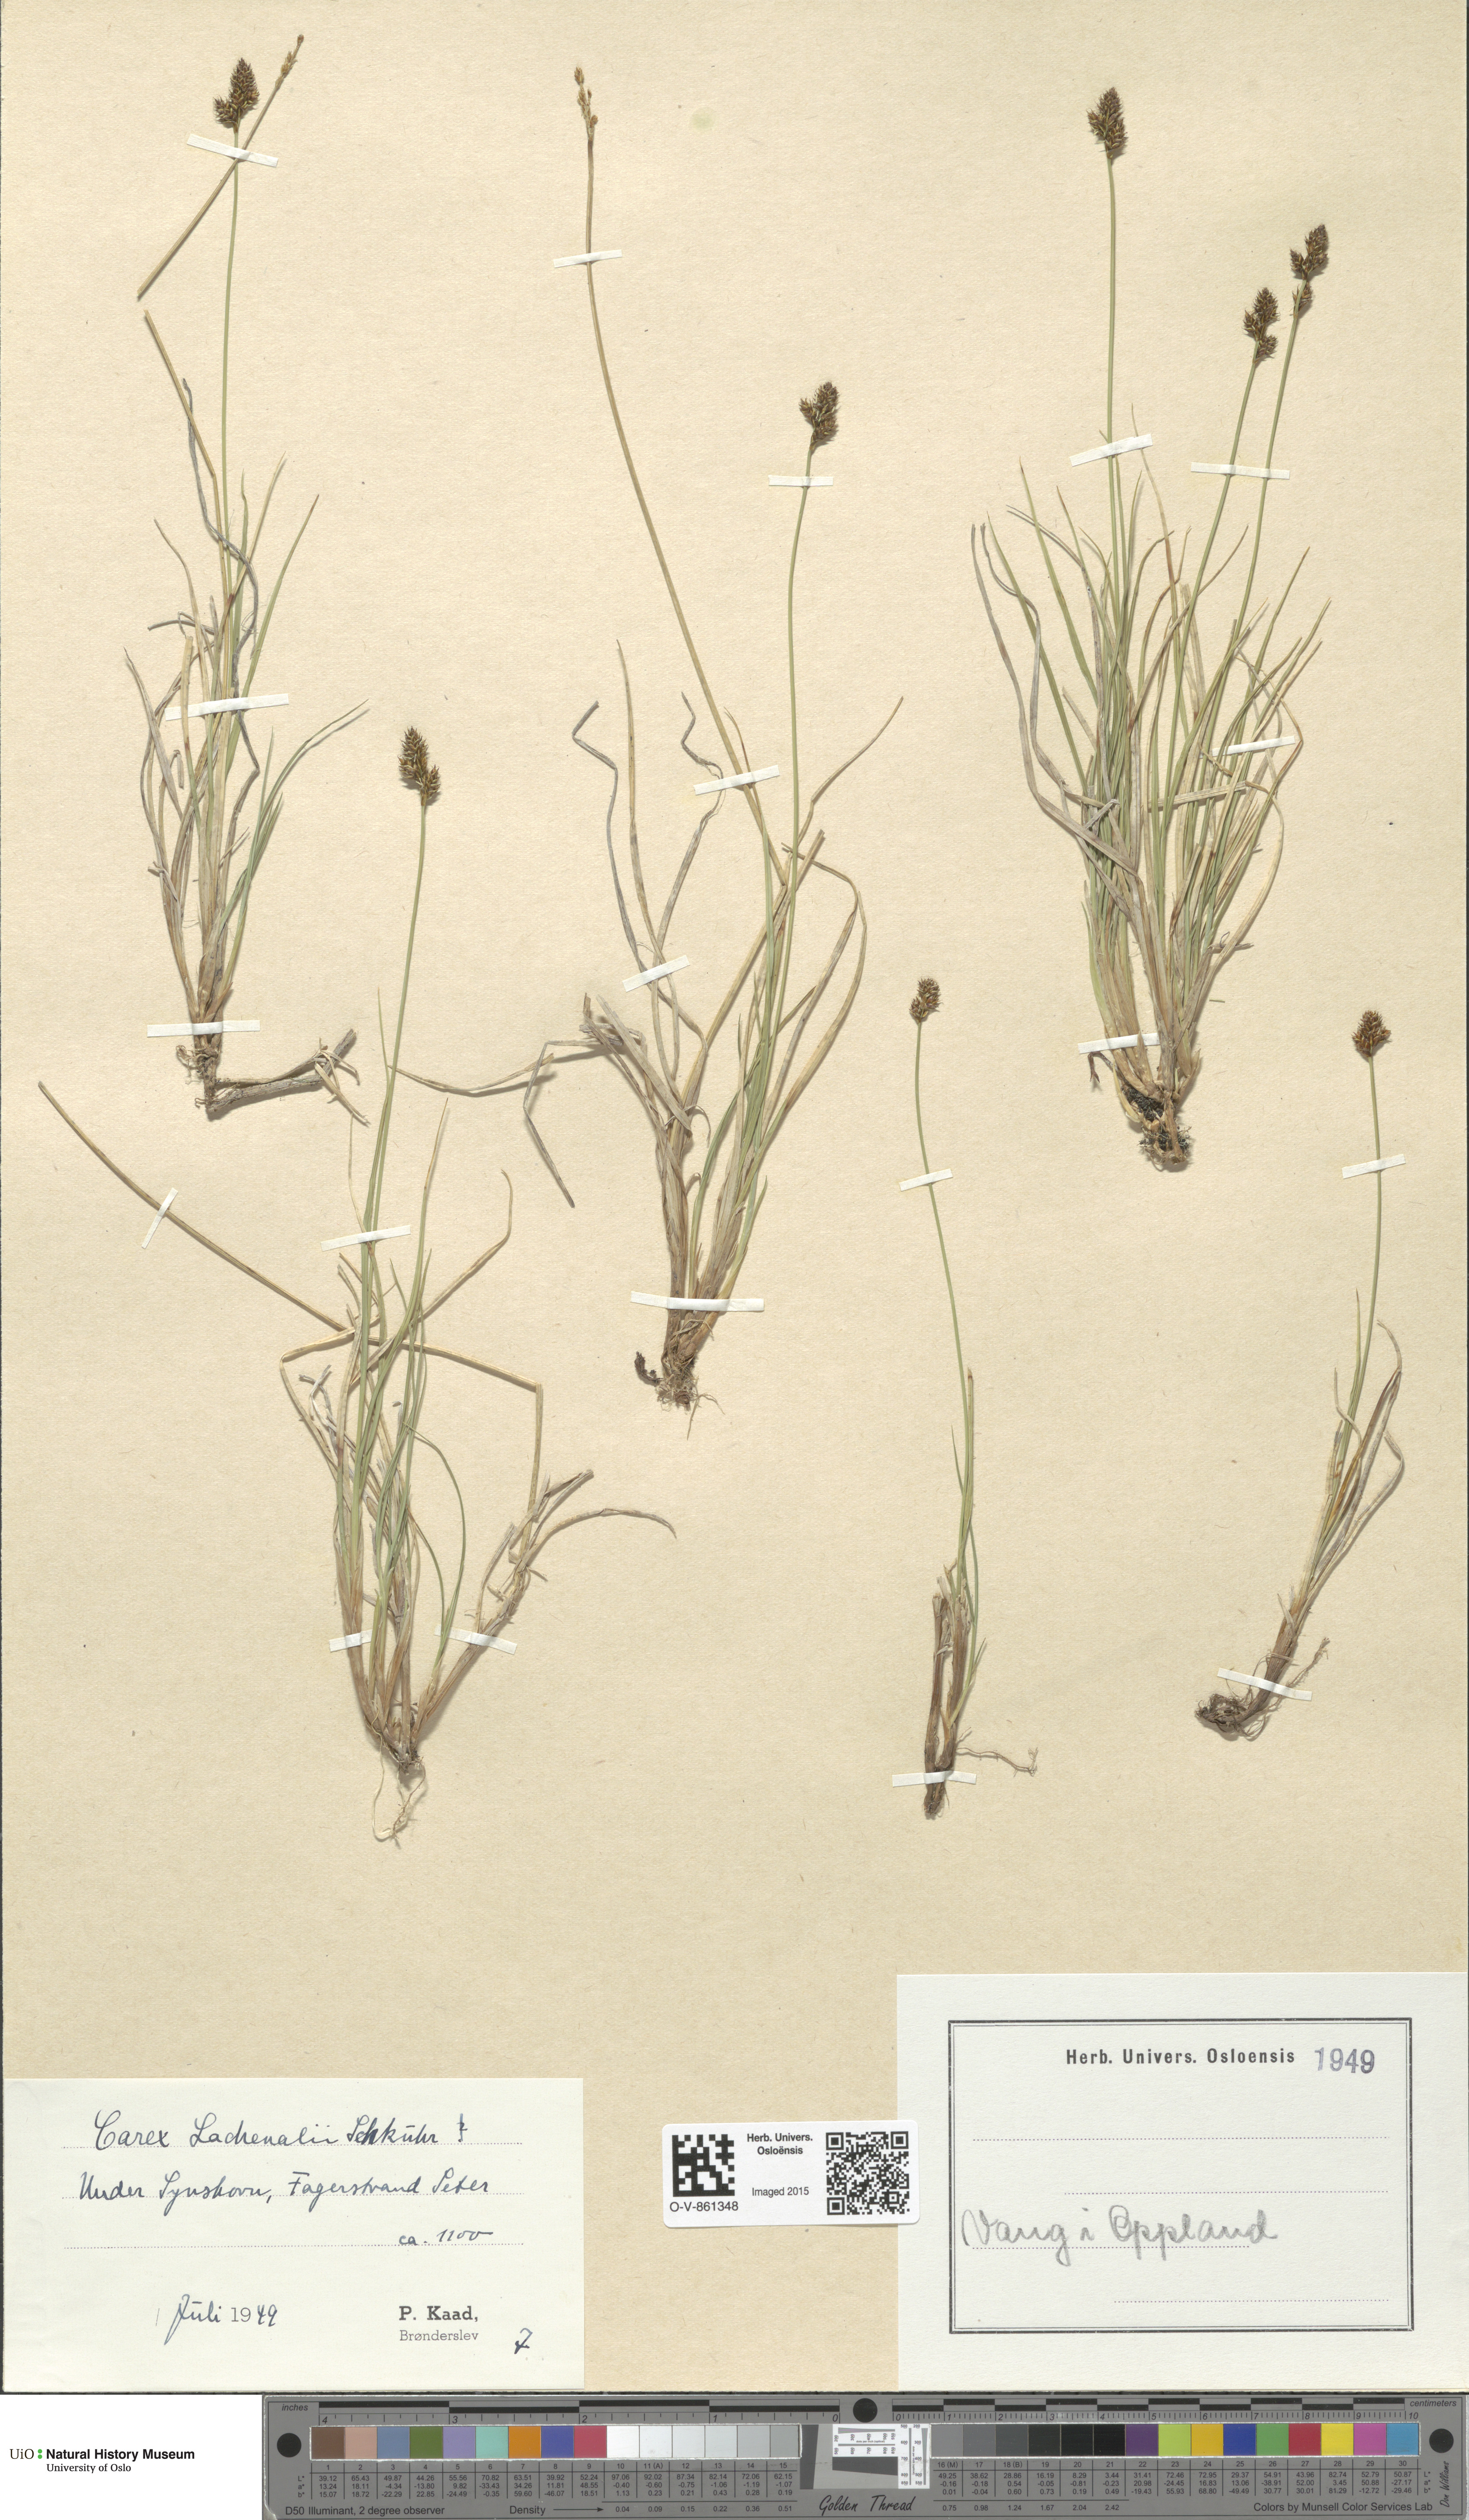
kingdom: Plantae
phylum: Tracheophyta
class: Liliopsida
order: Poales
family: Cyperaceae
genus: Carex
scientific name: Carex lachenalii
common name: Hare's-foot sedge
